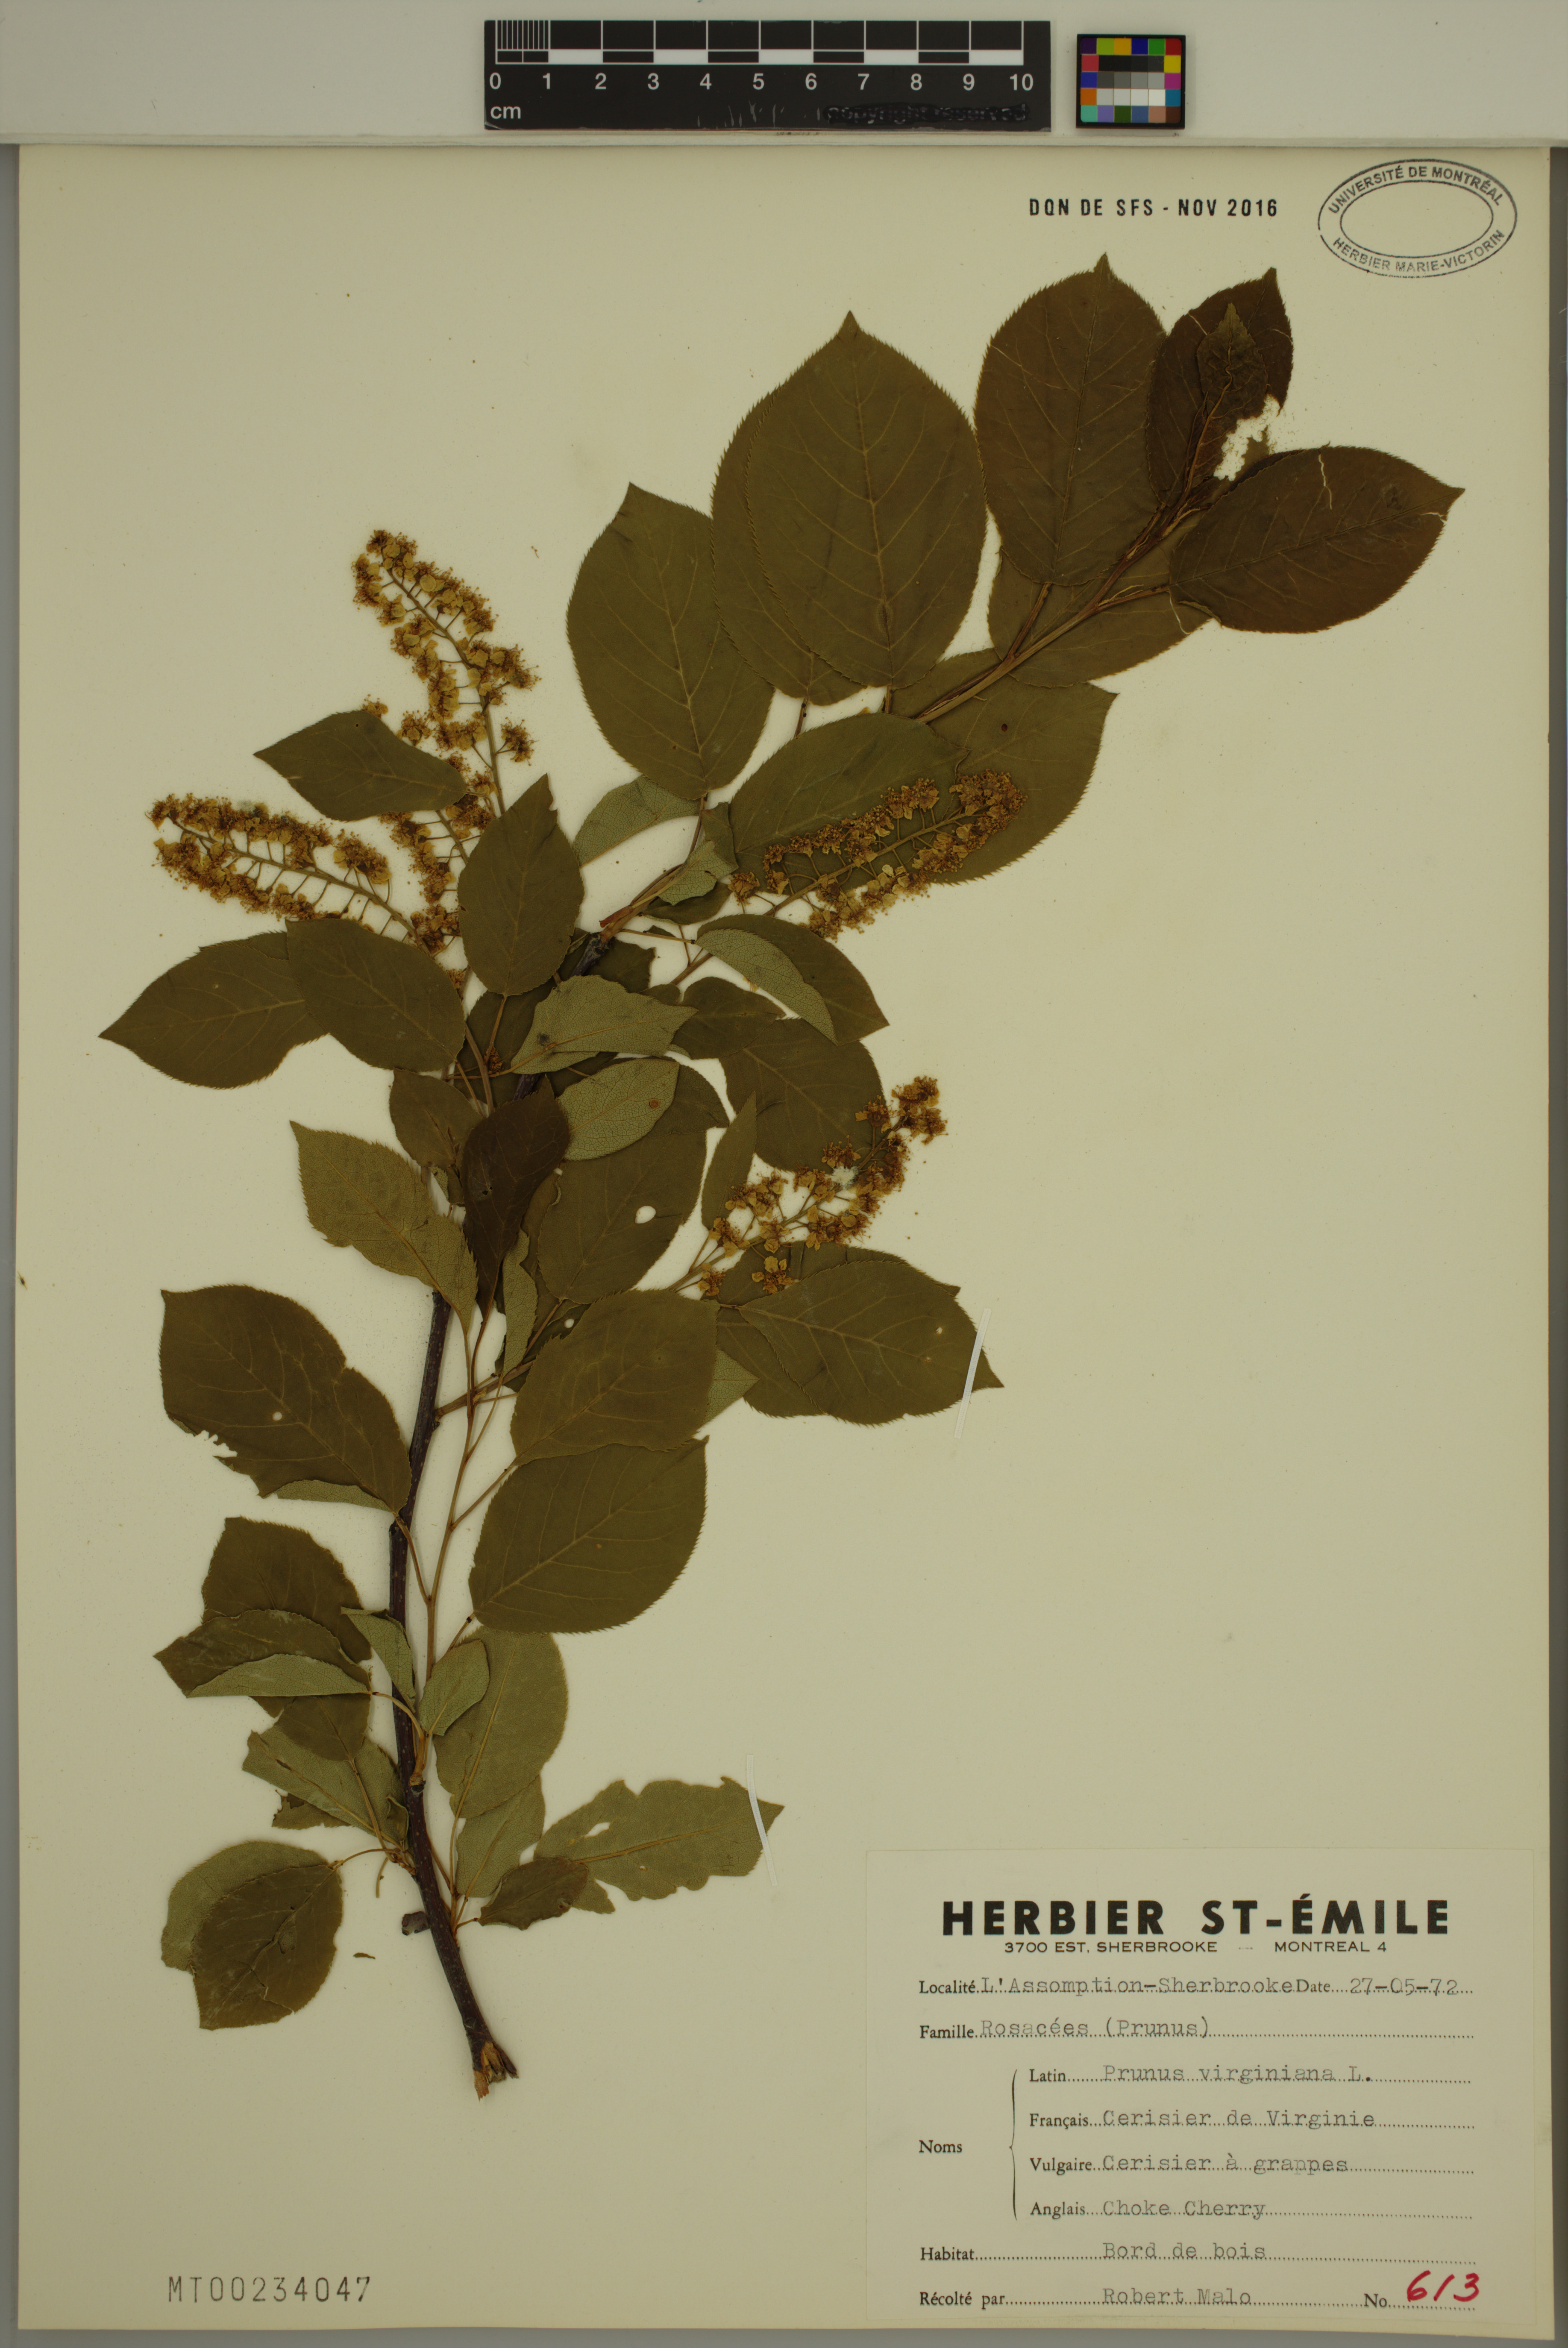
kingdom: Plantae
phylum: Tracheophyta
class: Magnoliopsida
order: Rosales
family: Rosaceae
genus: Prunus
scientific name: Prunus virginiana
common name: Chokecherry
